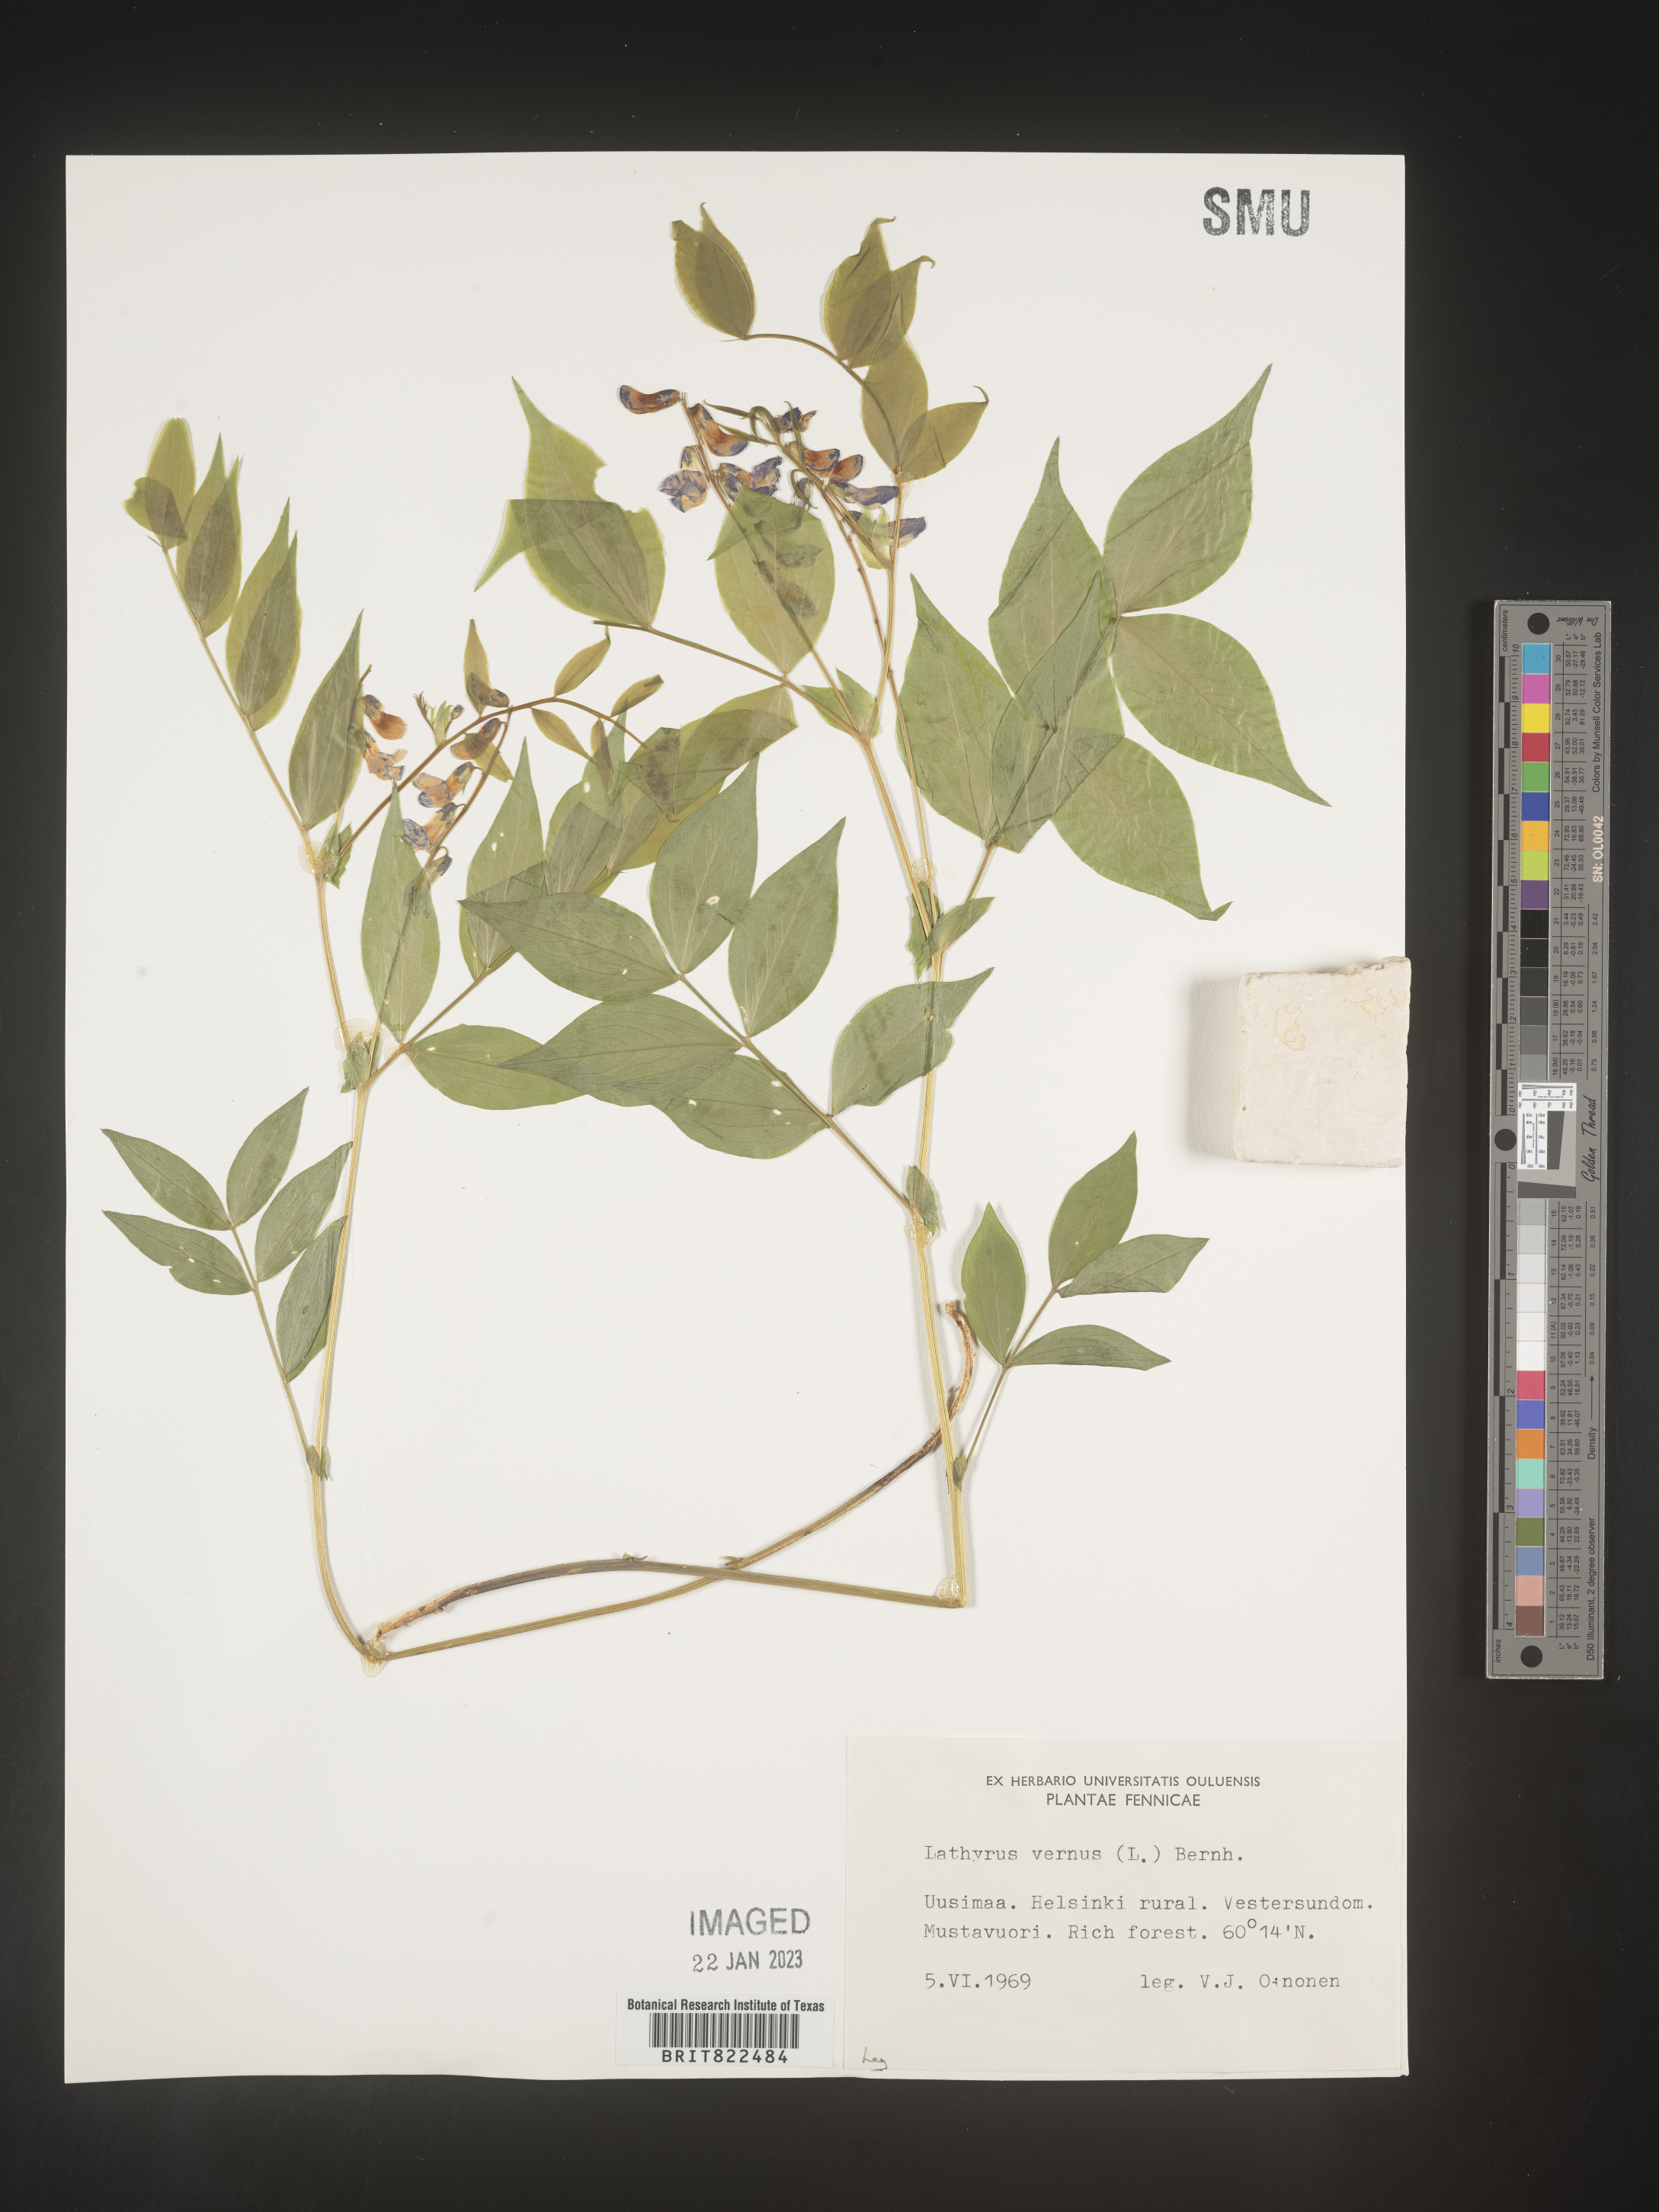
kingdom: Plantae
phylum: Tracheophyta
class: Magnoliopsida
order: Fabales
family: Fabaceae
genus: Lathyrus
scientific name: Lathyrus
